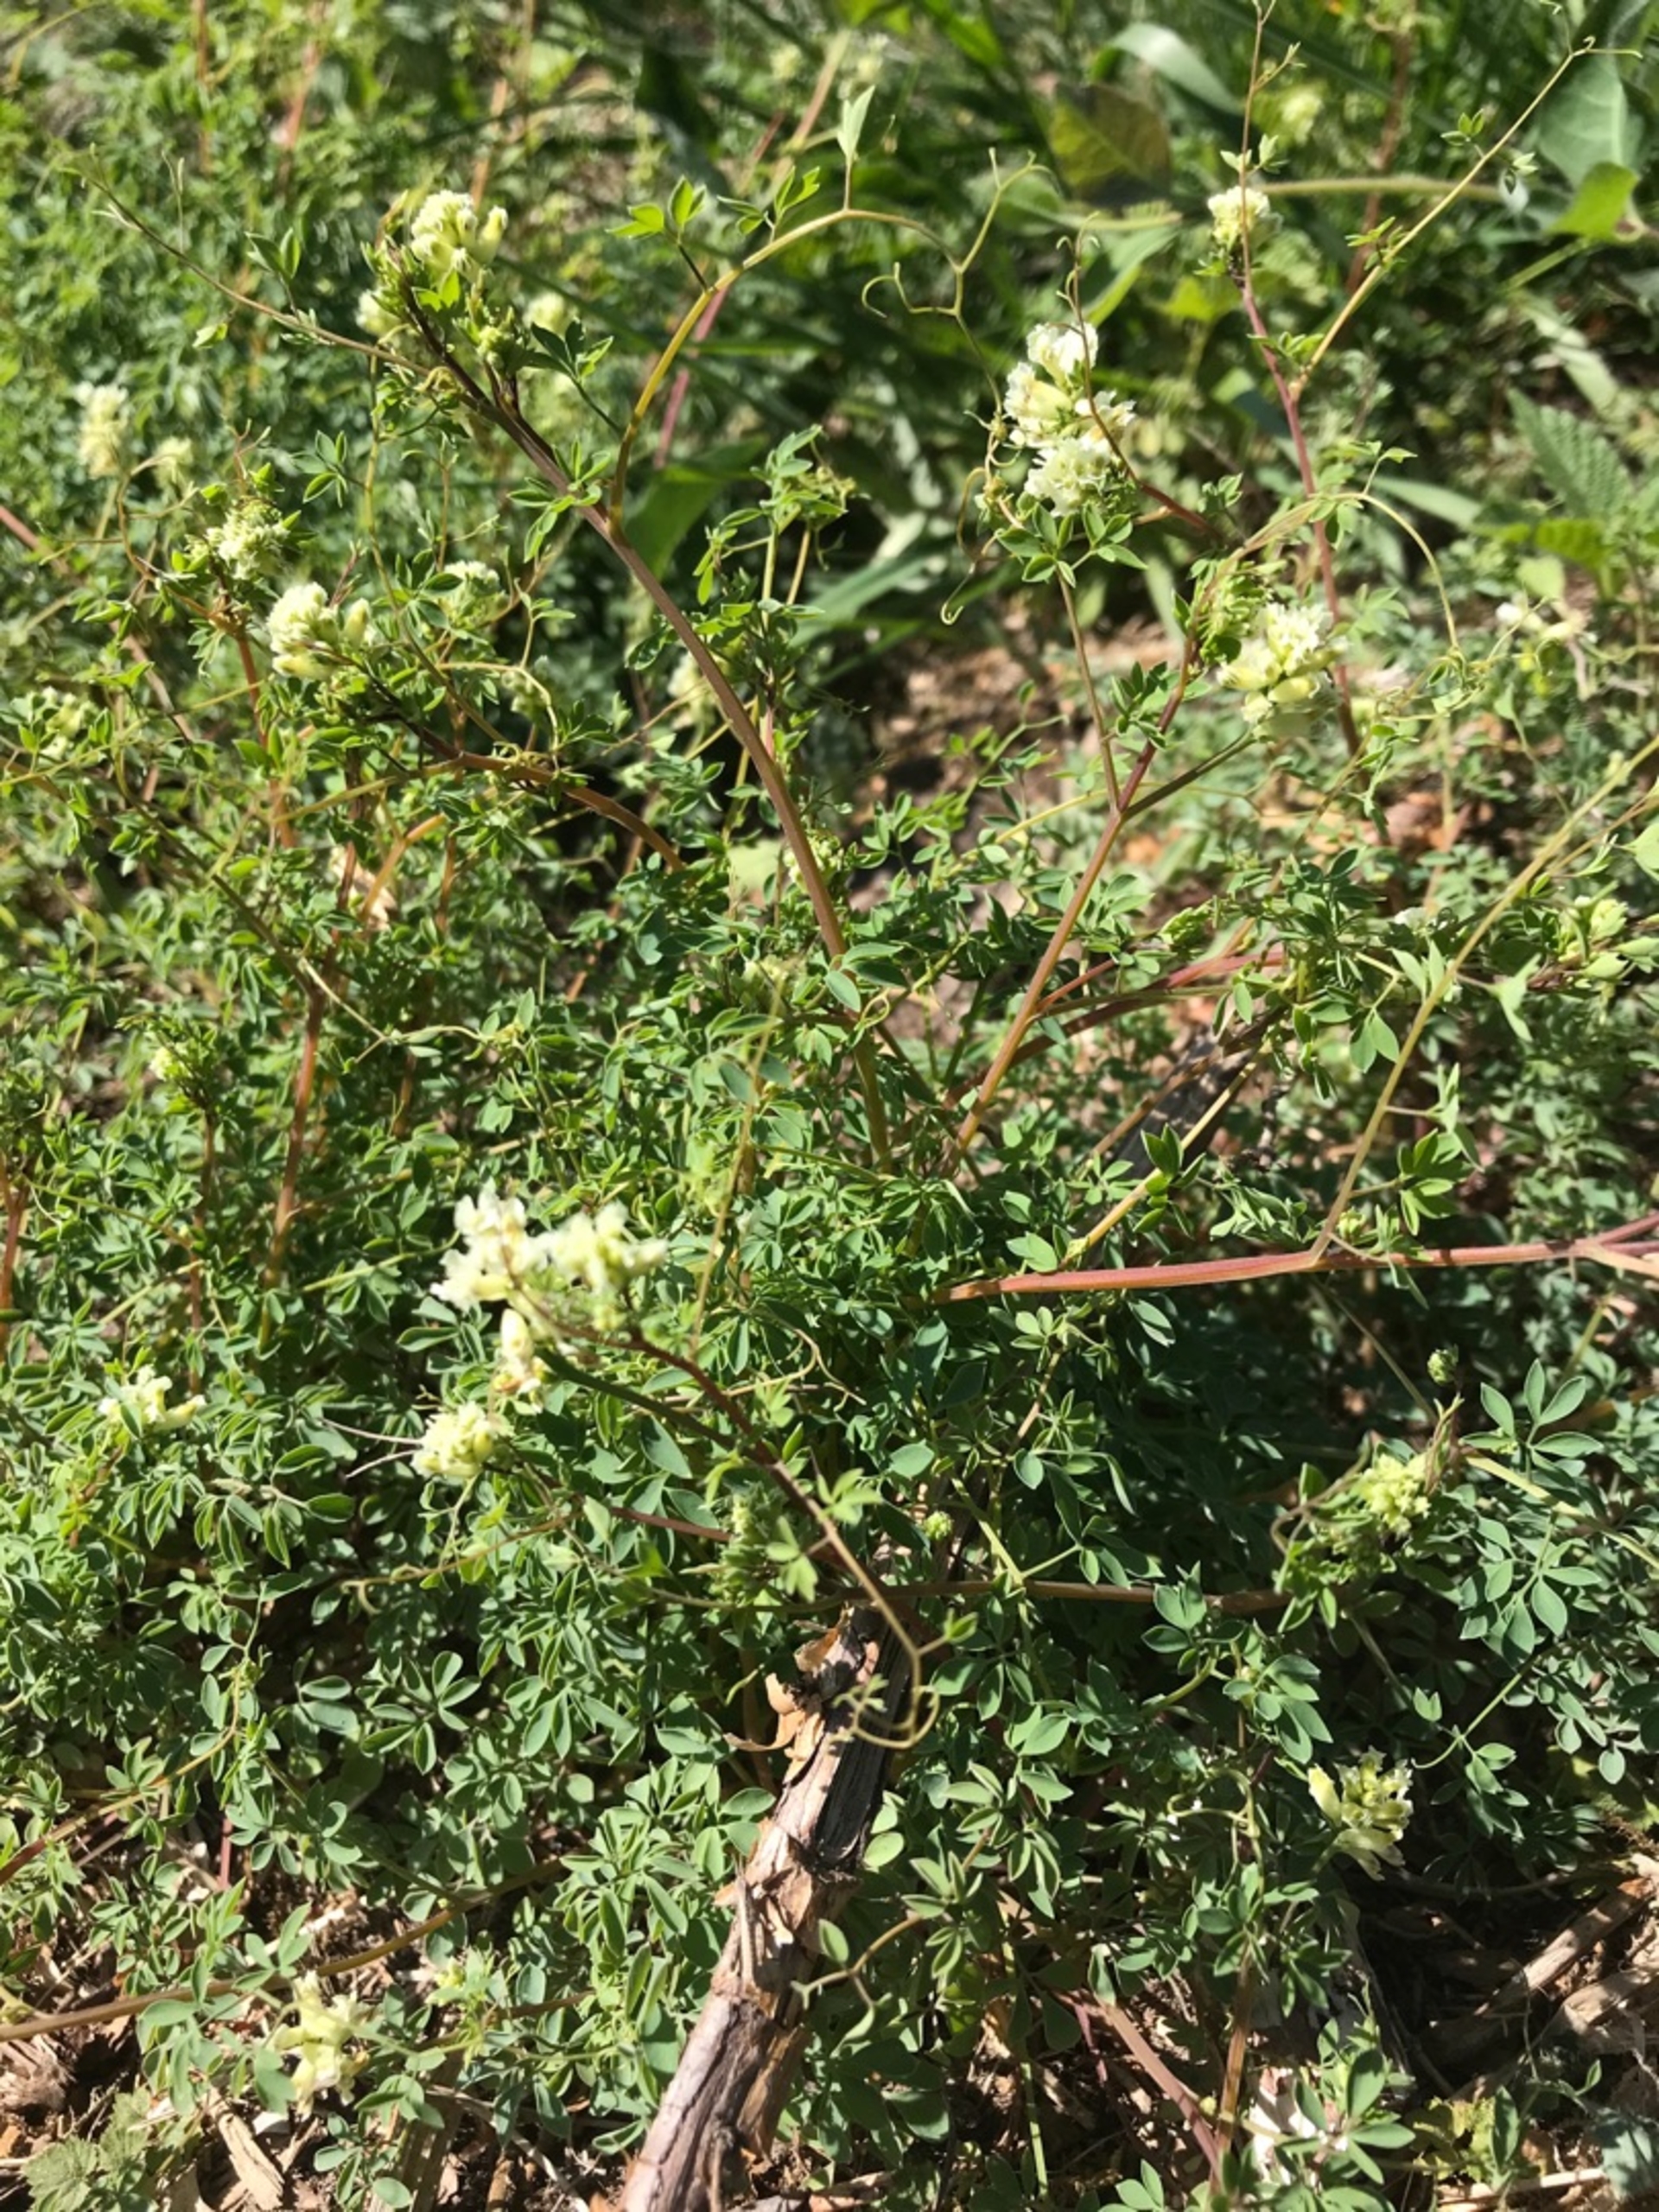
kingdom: Plantae
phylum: Tracheophyta
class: Magnoliopsida
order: Ranunculales
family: Papaveraceae
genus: Ceratocapnos
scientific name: Ceratocapnos claviculata
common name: Klatrende lærkespore
